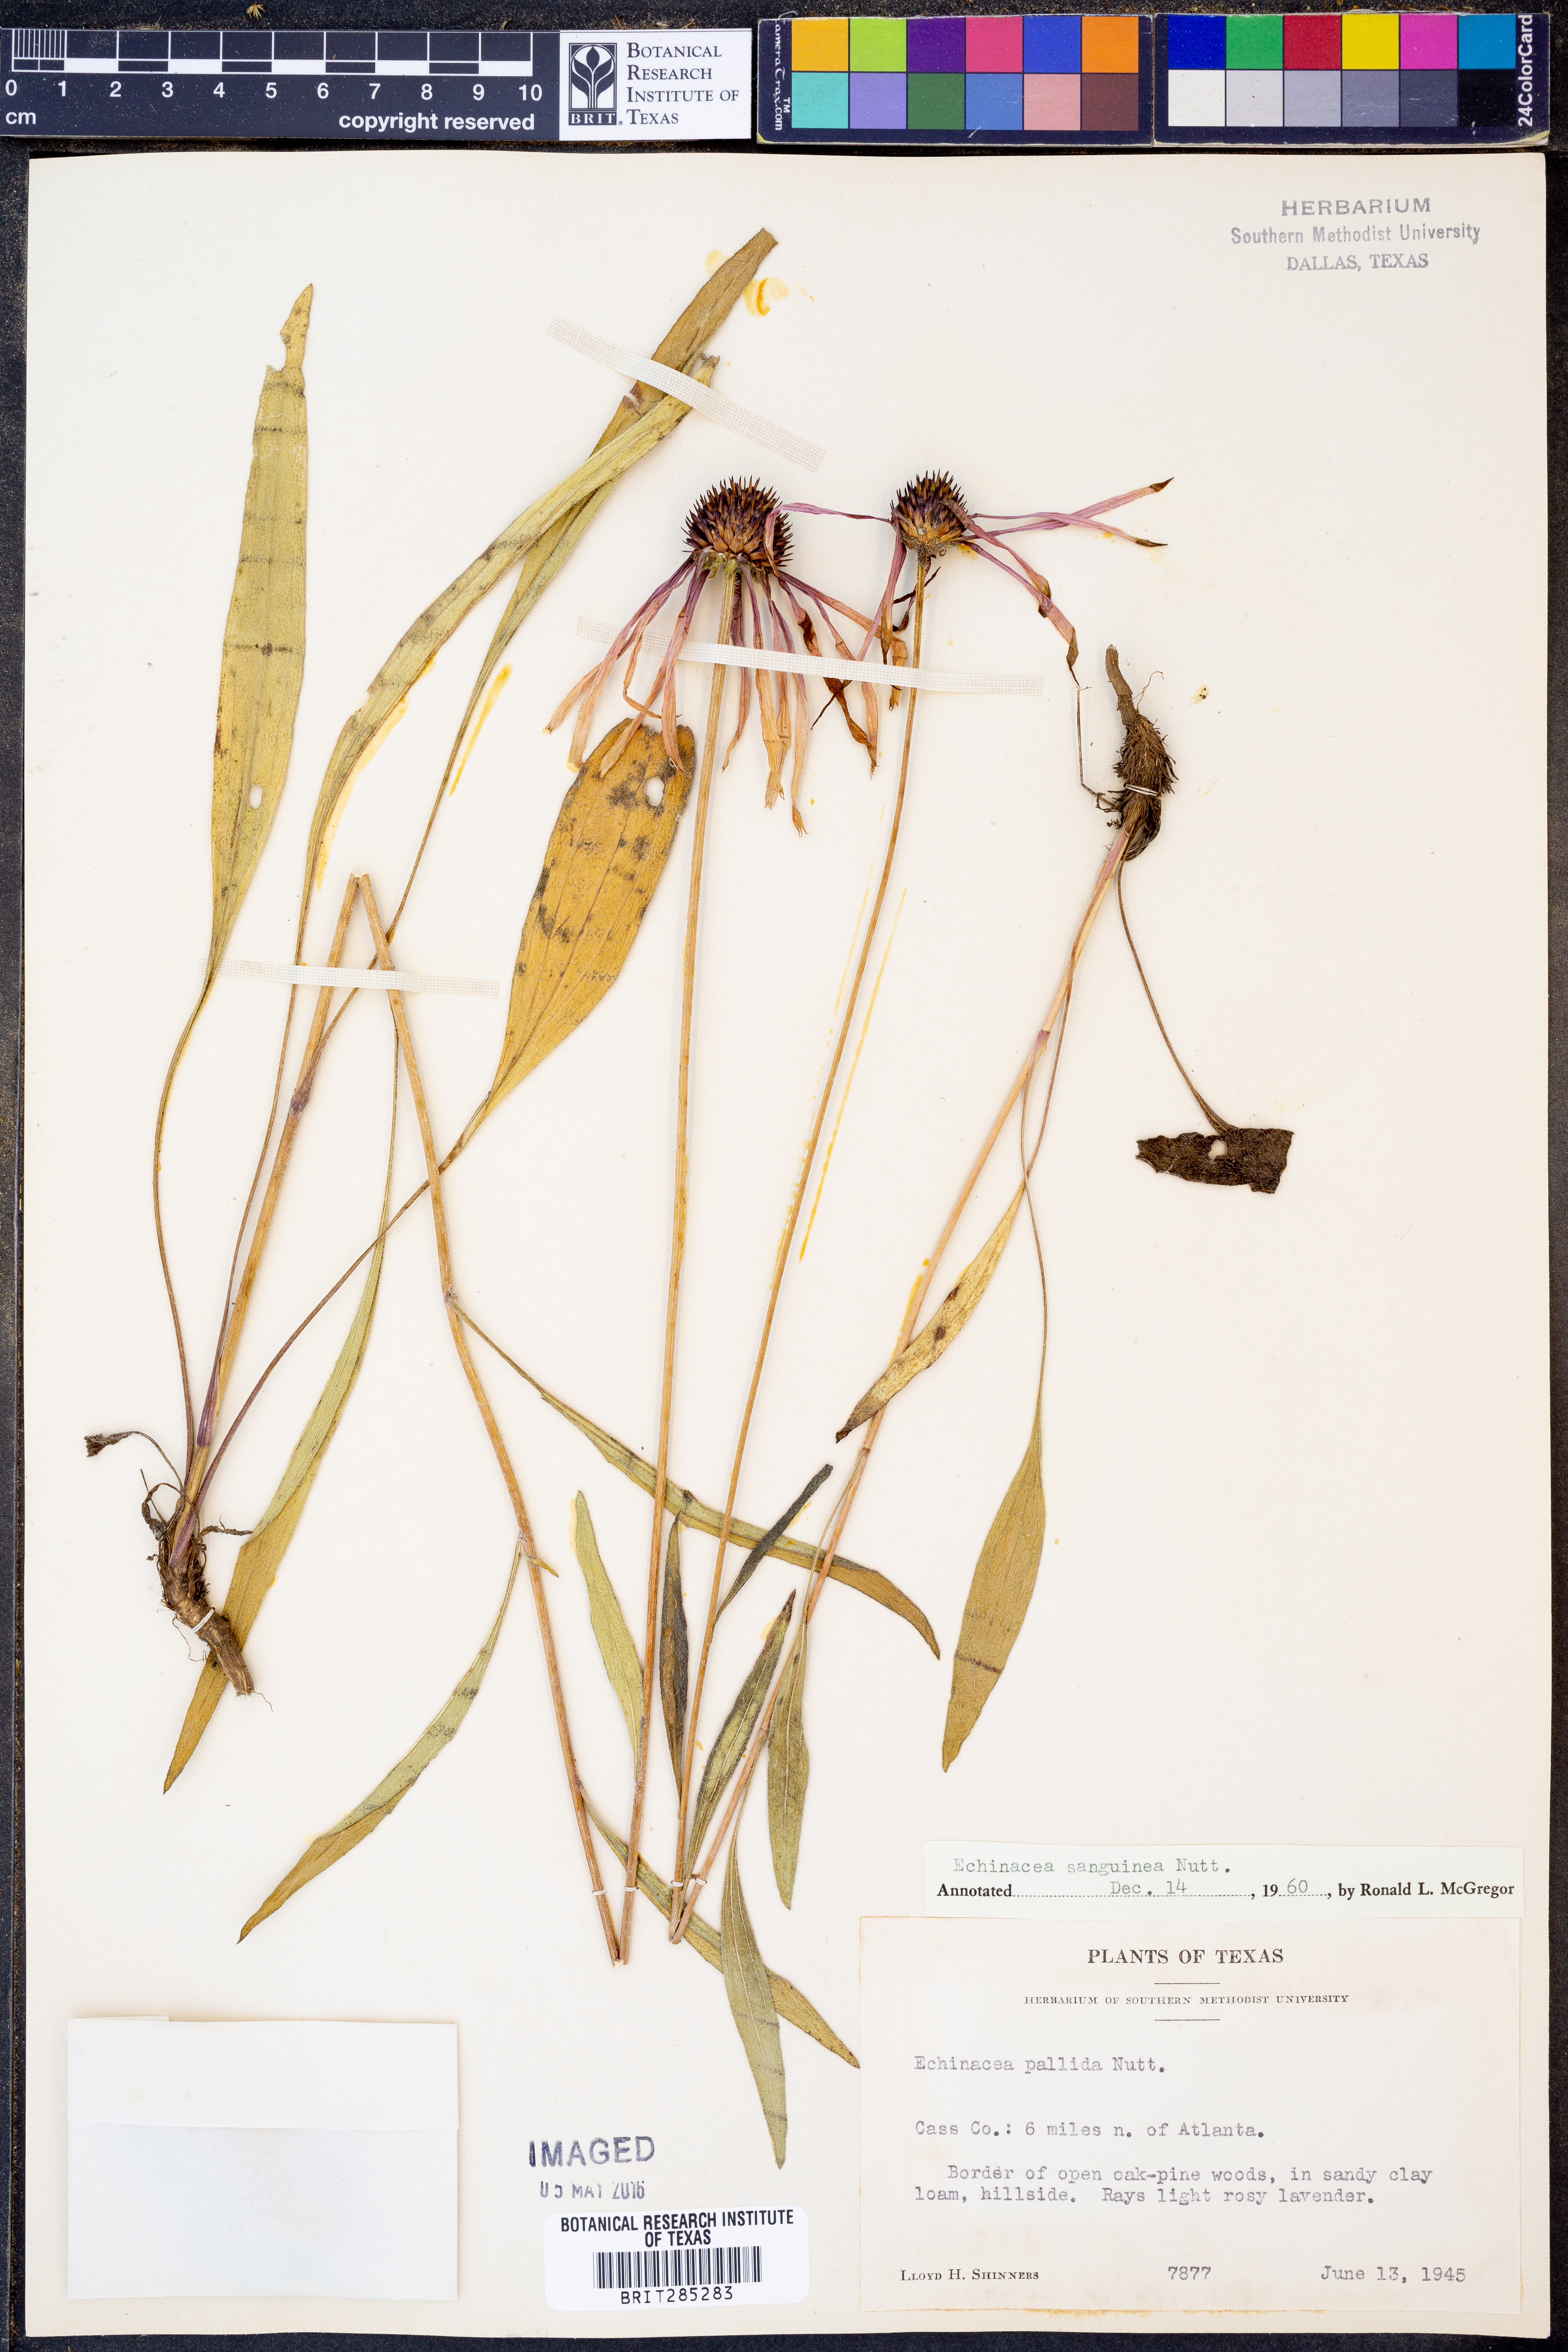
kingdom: Plantae
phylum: Tracheophyta
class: Magnoliopsida
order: Asterales
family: Asteraceae
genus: Echinacea
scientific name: Echinacea sanguinea
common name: Sanguine purple-coneflower
